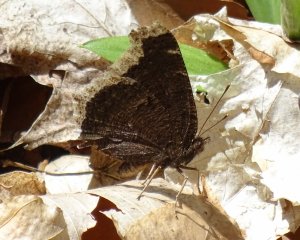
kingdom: Animalia
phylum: Arthropoda
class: Insecta
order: Lepidoptera
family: Nymphalidae
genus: Nymphalis
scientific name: Nymphalis antiopa
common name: Mourning Cloak
